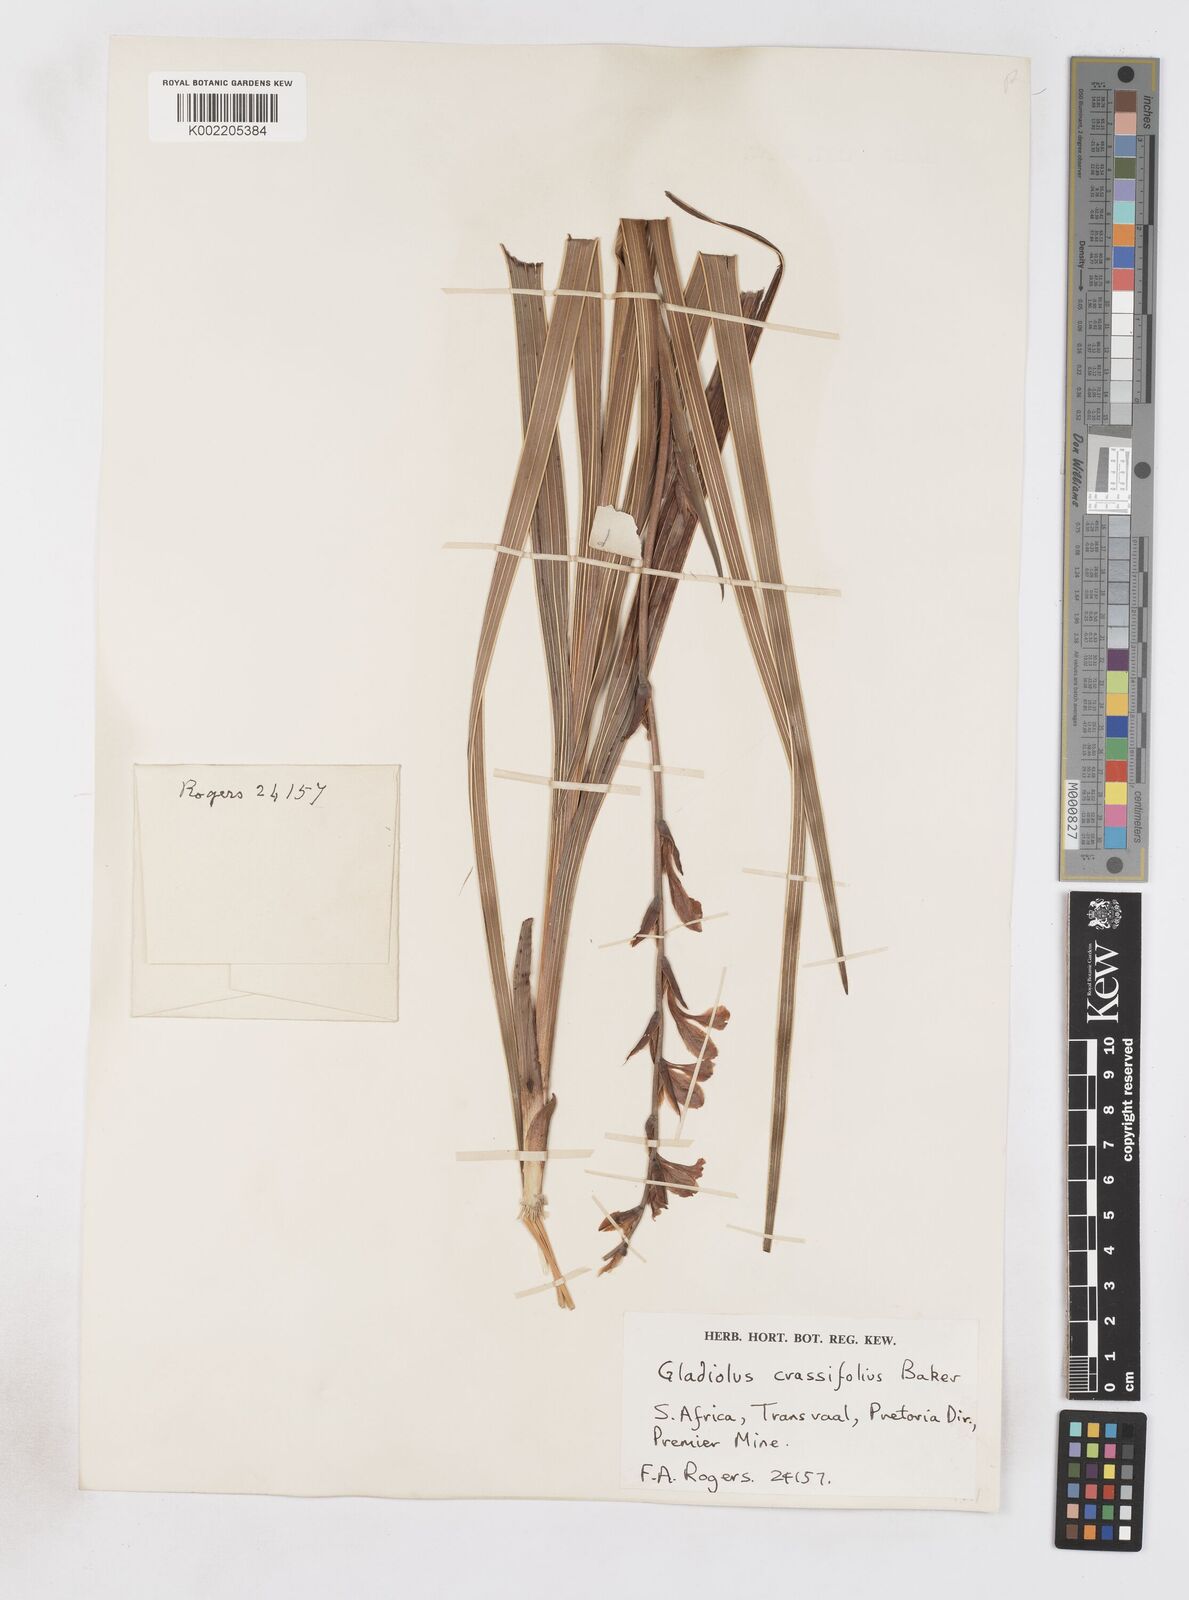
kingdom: Plantae
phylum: Tracheophyta
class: Liliopsida
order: Asparagales
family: Iridaceae
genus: Gladiolus
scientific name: Gladiolus crassifolius
